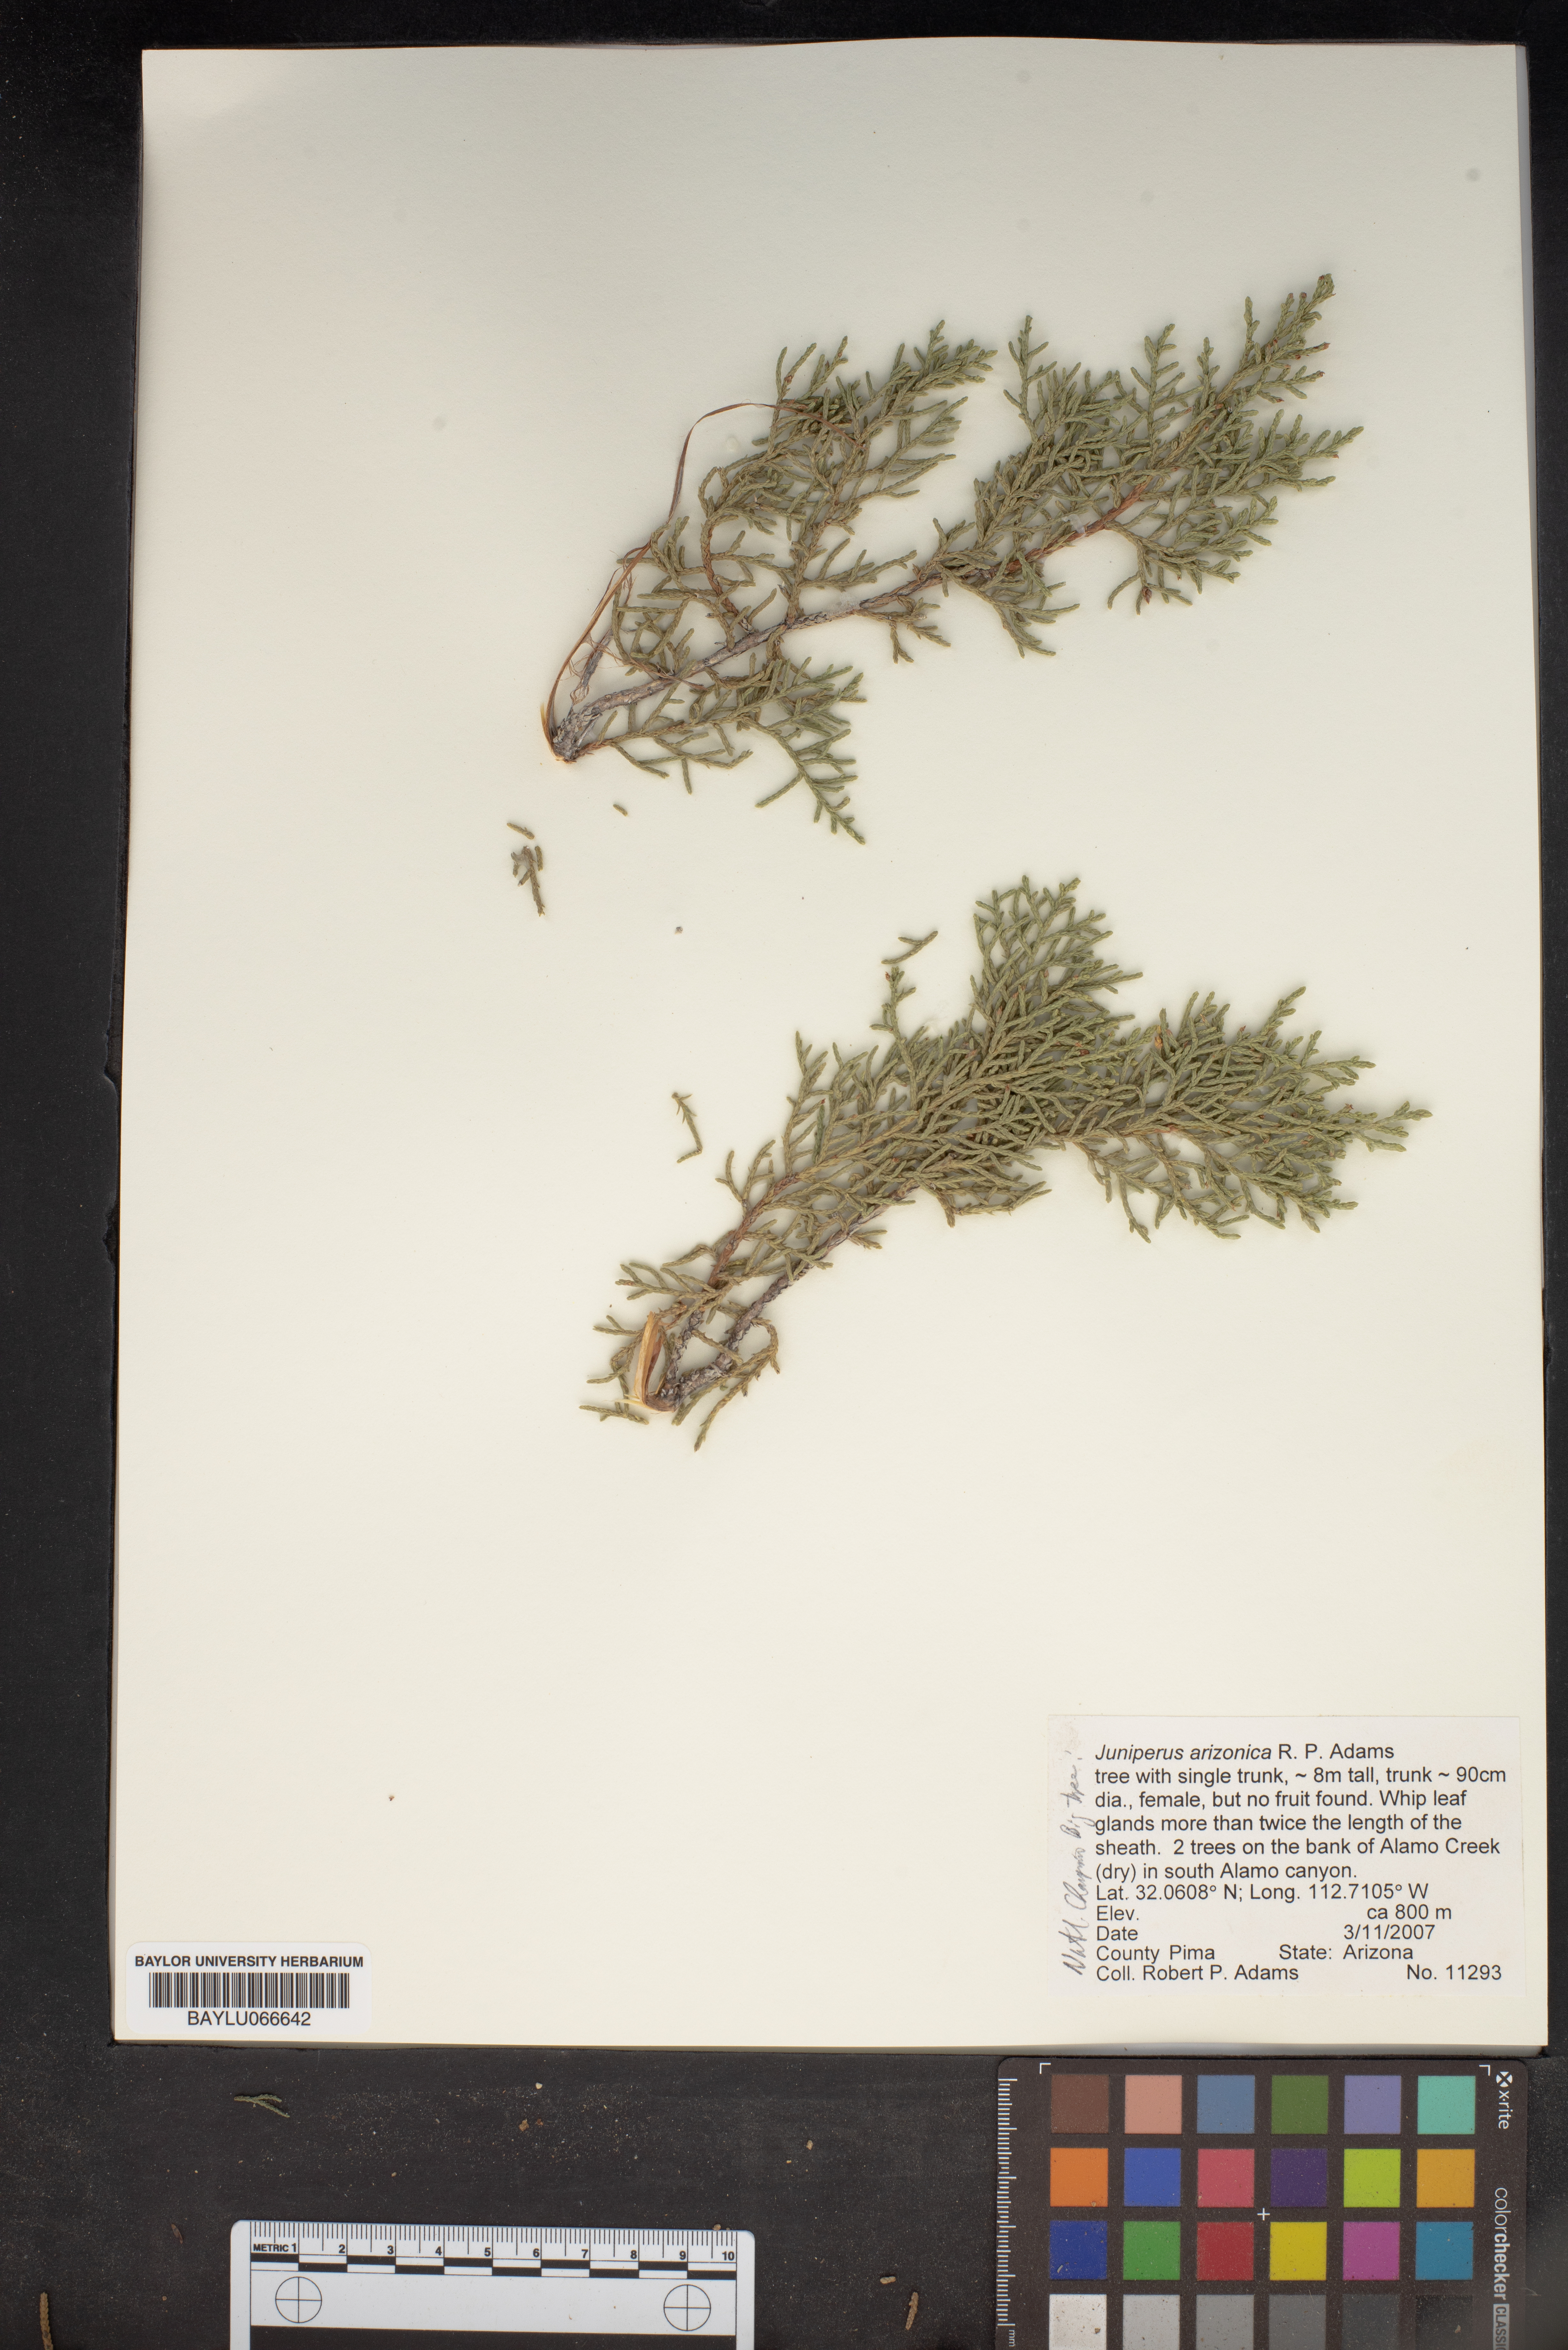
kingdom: Plantae
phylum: Tracheophyta
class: Pinopsida
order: Pinales
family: Cupressaceae
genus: Juniperus
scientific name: Juniperus arizonica
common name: Arizona juniper
